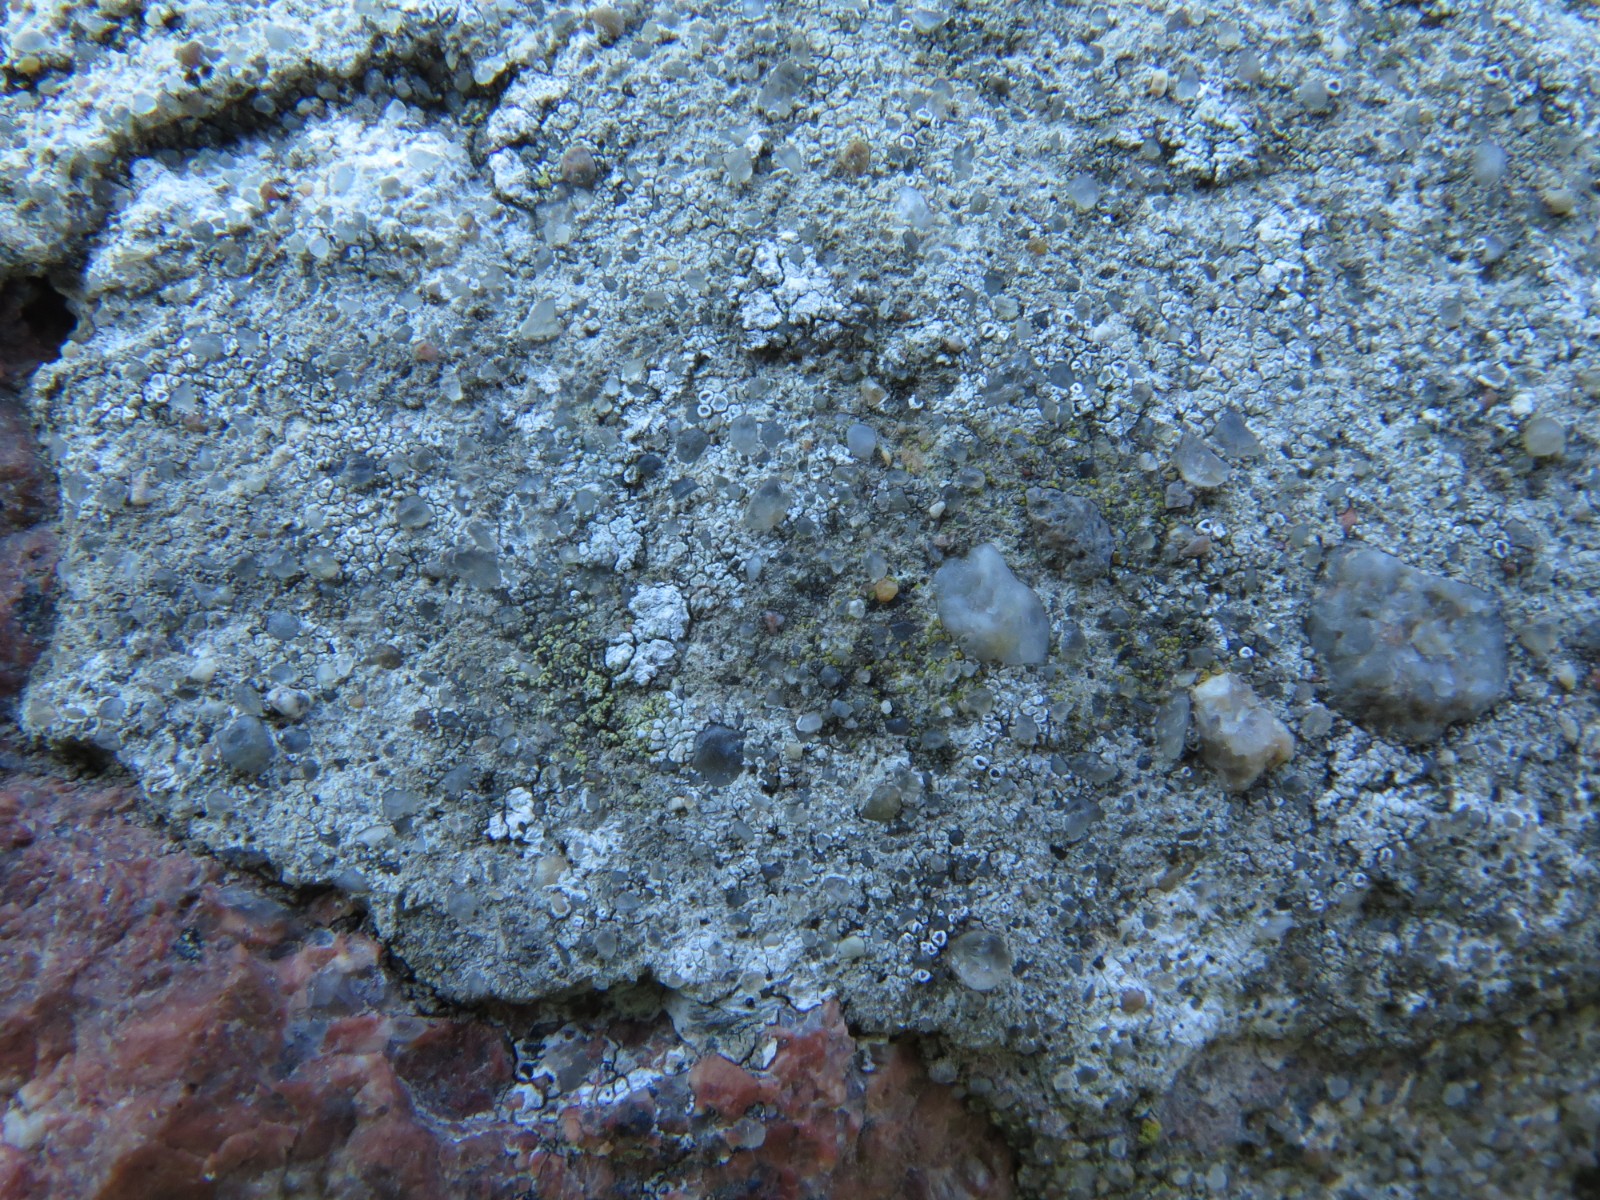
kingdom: Fungi
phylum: Ascomycota
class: Lecanoromycetes
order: Lecanorales
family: Lecanoraceae
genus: Polyozosia
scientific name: Polyozosia albescens
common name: cement-kantskivelav
